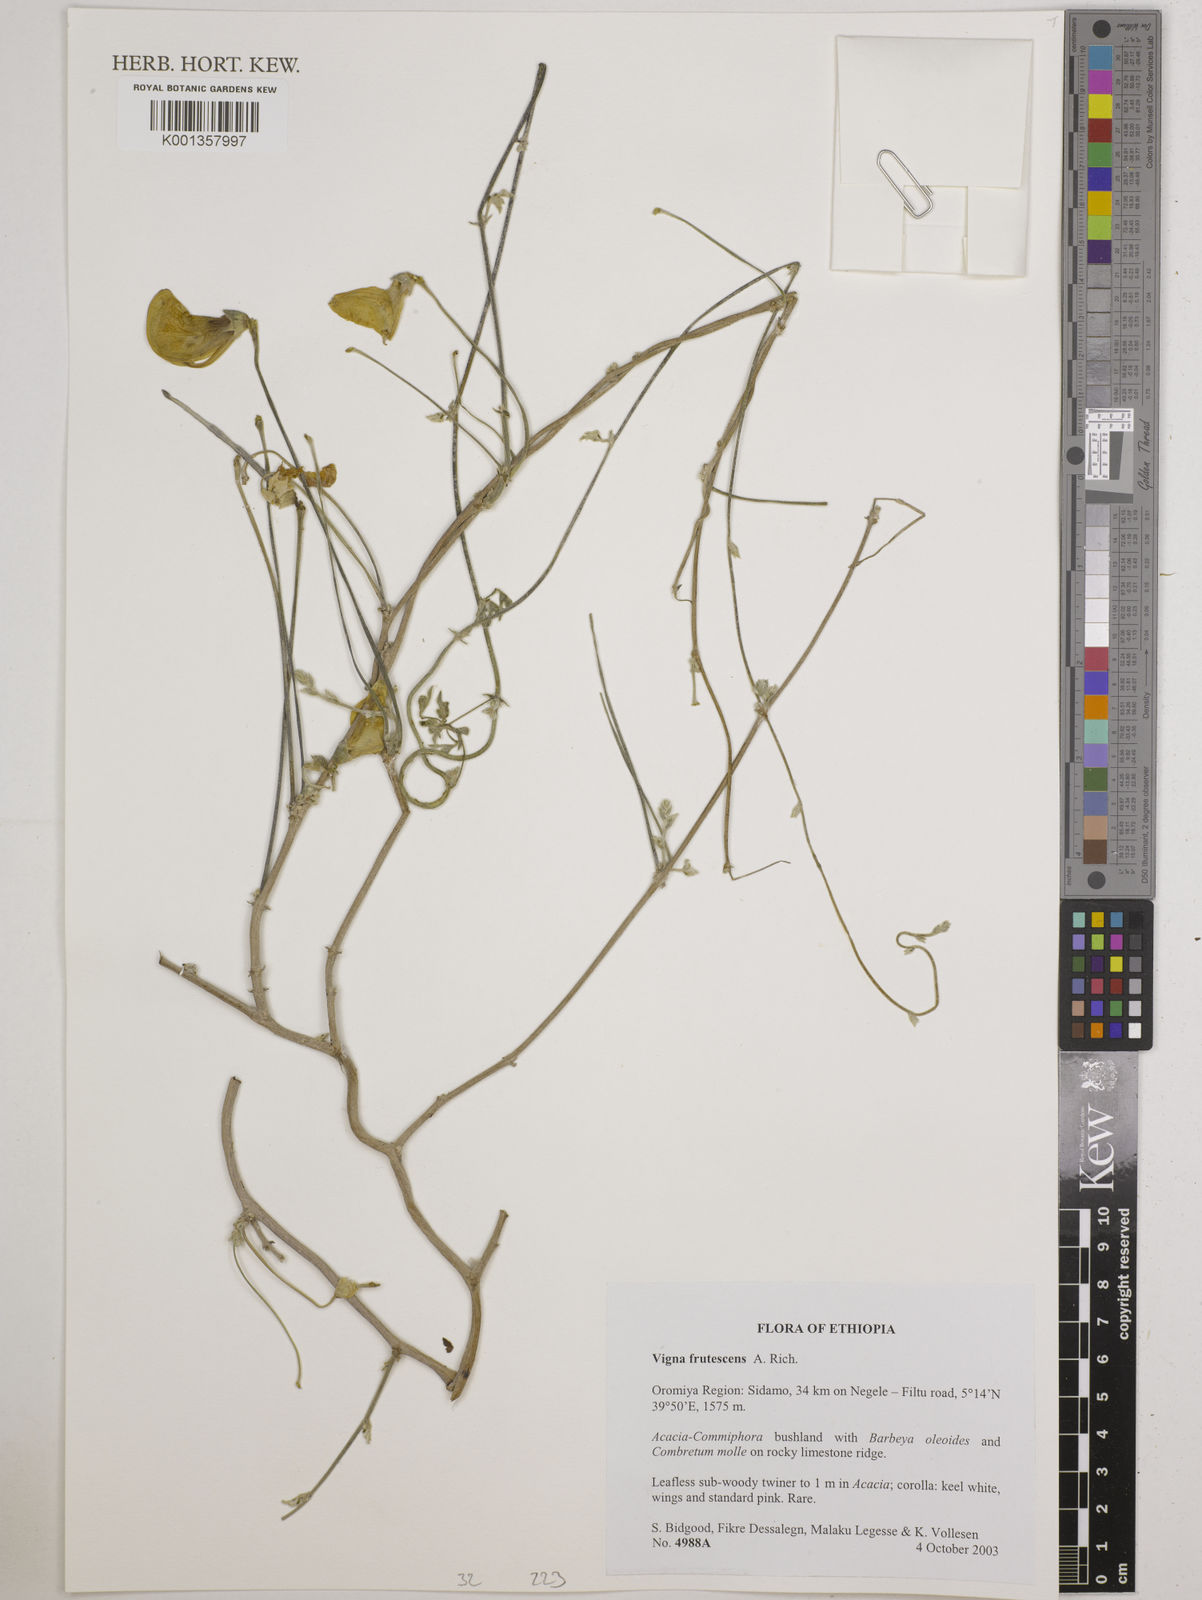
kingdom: Plantae
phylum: Tracheophyta
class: Magnoliopsida
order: Fabales
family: Fabaceae
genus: Vigna
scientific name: Vigna frutescens
